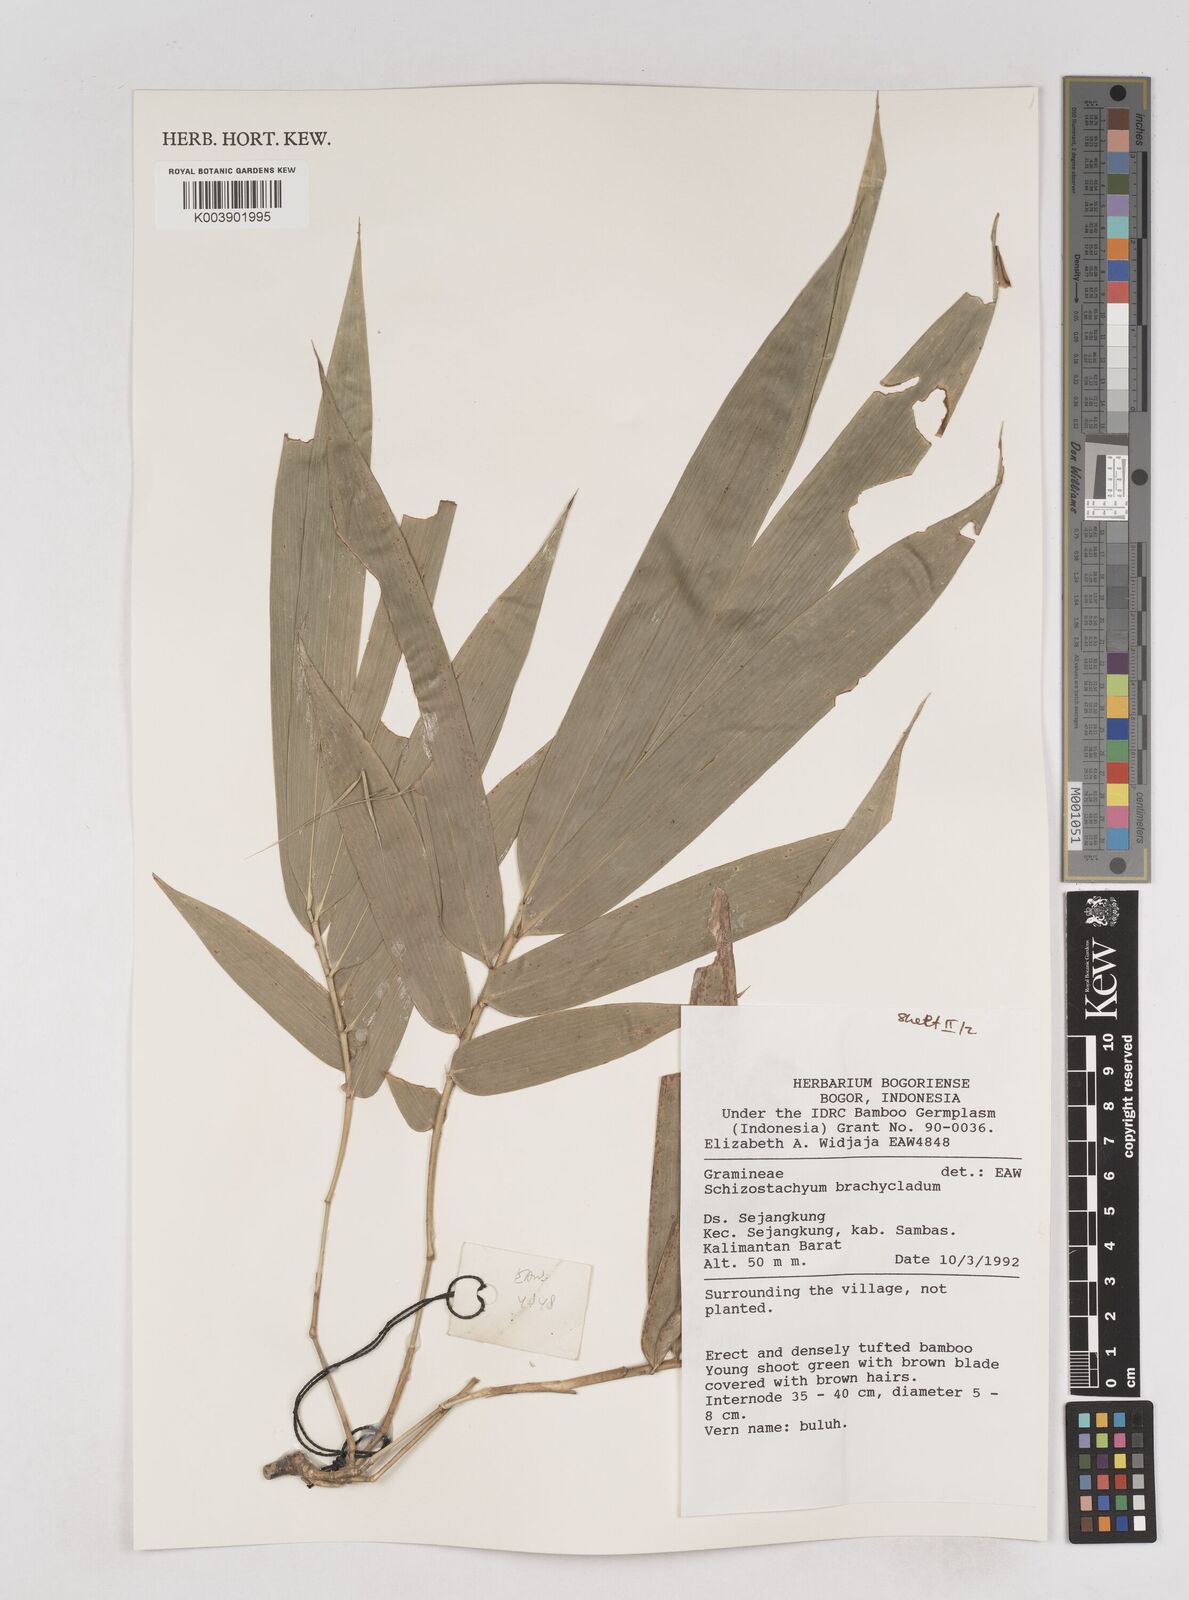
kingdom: Plantae
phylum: Tracheophyta
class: Liliopsida
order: Poales
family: Poaceae
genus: Schizostachyum
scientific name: Schizostachyum brachycladum
